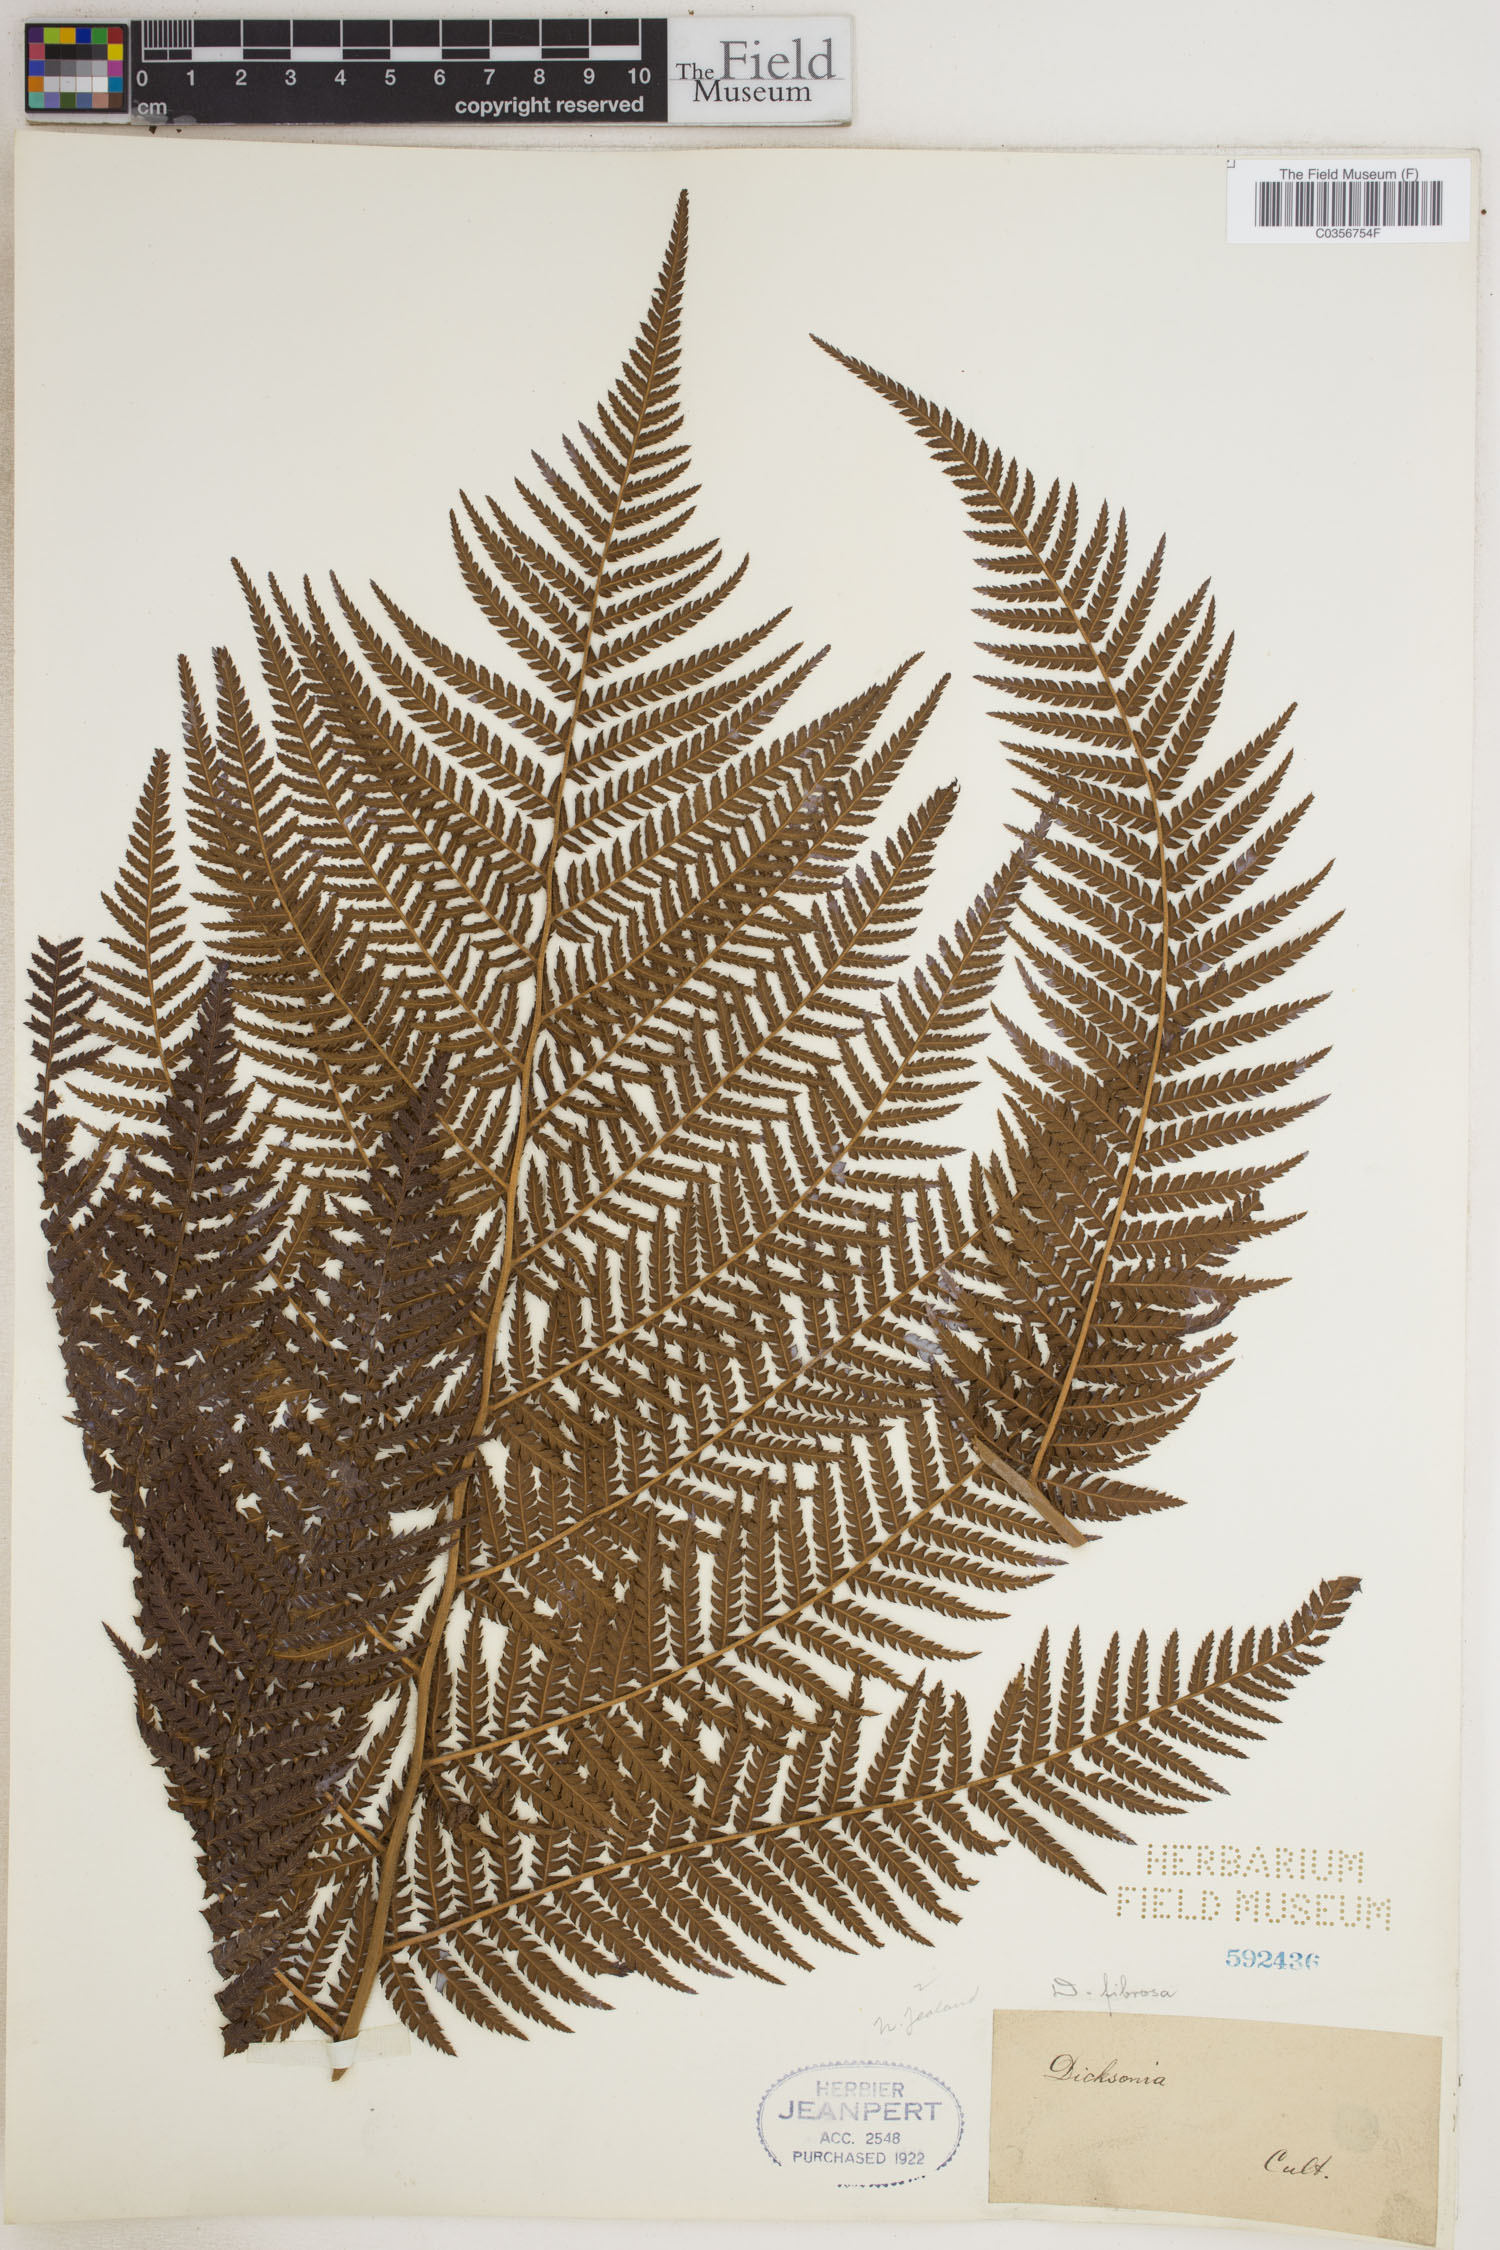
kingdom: Plantae
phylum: Tracheophyta
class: Polypodiopsida
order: Cyatheales
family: Dicksoniaceae
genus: Dicksonia
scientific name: Dicksonia fibrosa
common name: Golden tree fern
